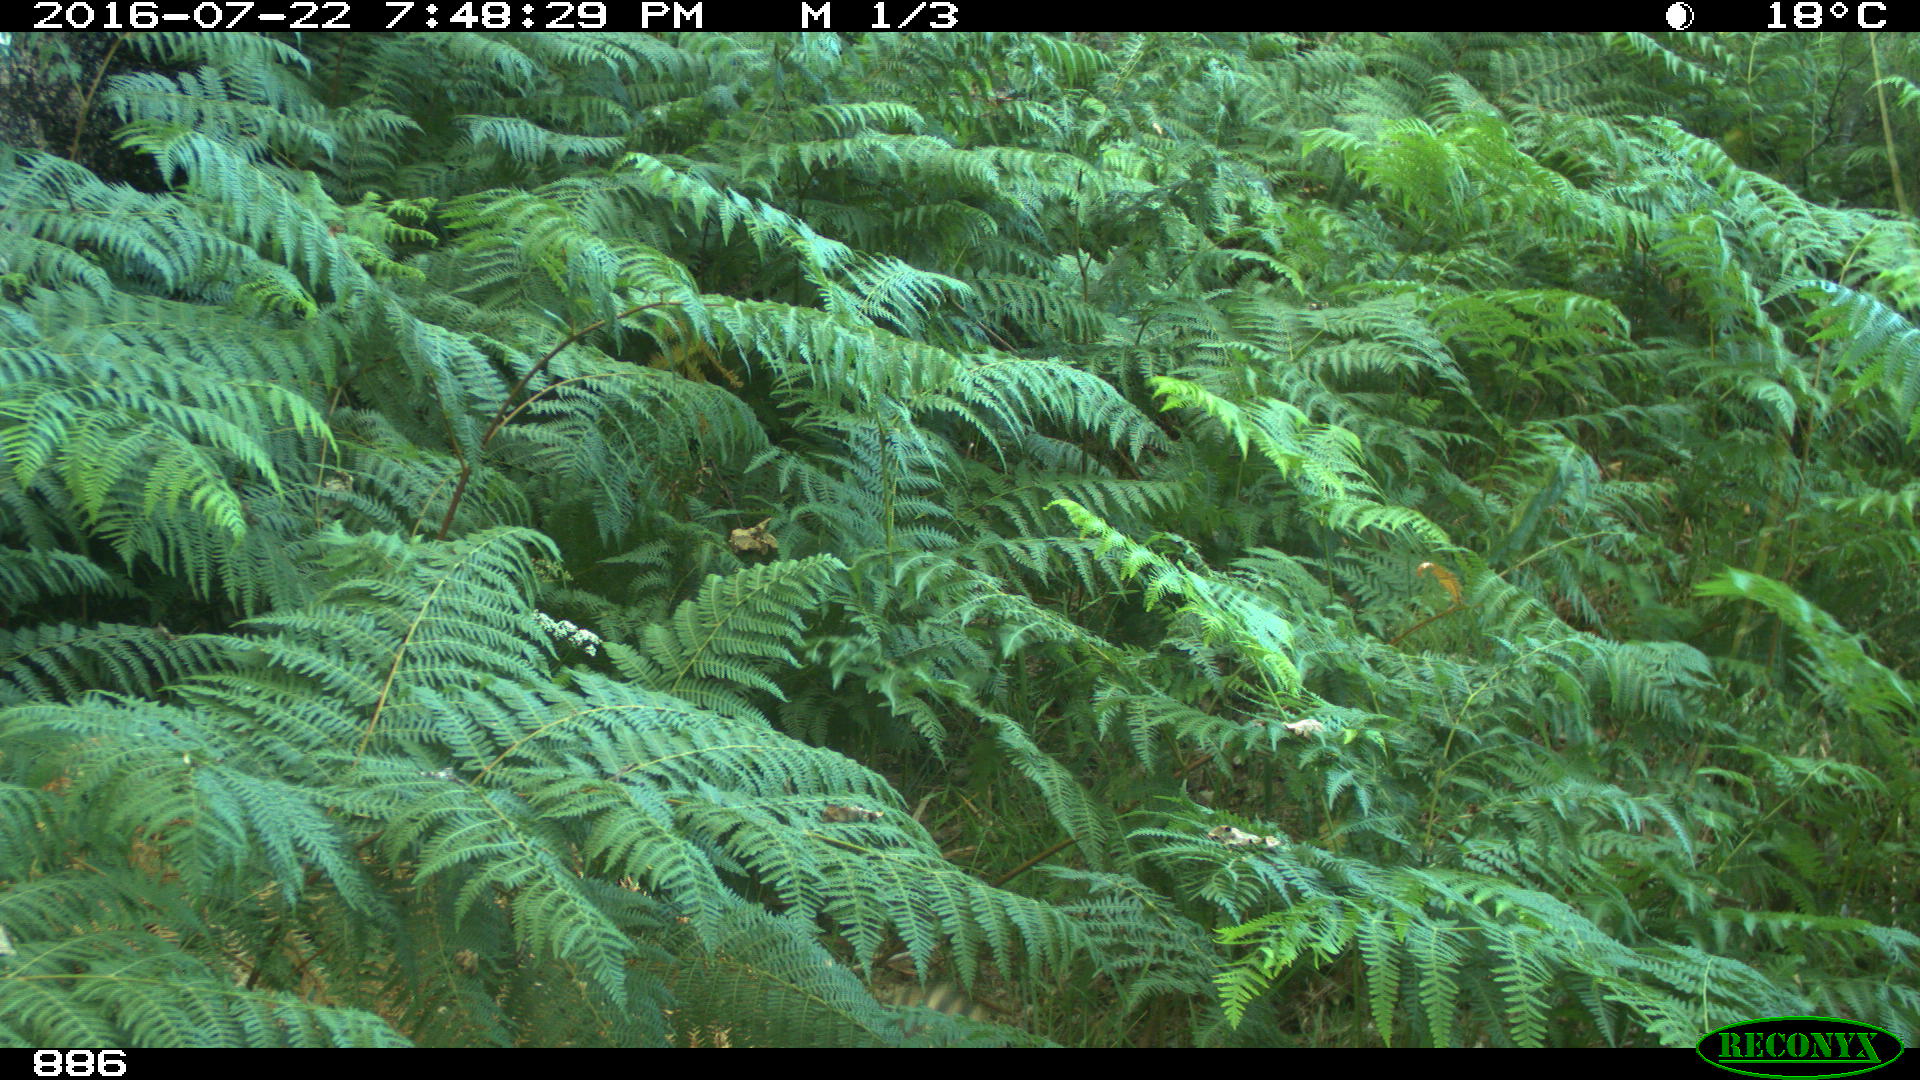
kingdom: Animalia
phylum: Chordata
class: Mammalia
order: Artiodactyla
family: Suidae
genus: Sus
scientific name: Sus scrofa
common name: Wild boar
